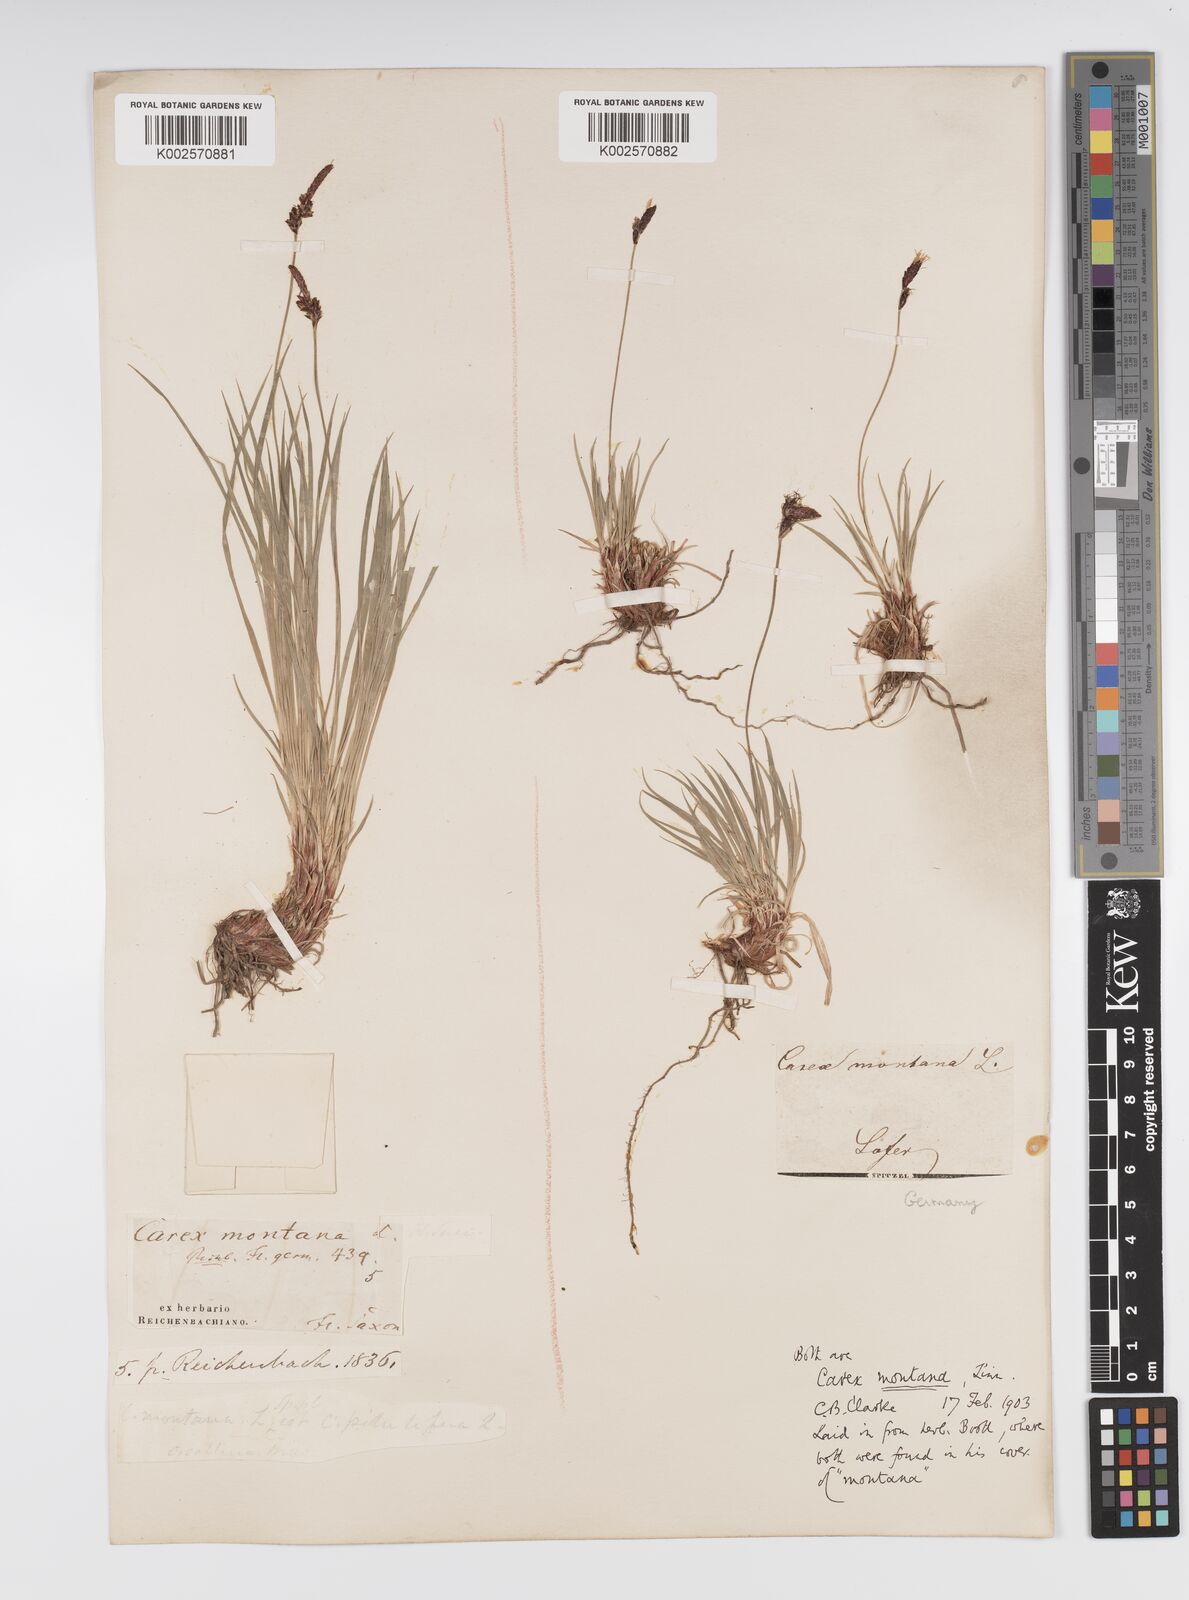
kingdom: Plantae
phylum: Tracheophyta
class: Liliopsida
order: Poales
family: Cyperaceae
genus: Carex
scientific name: Carex montana
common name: Soft-leaved sedge
